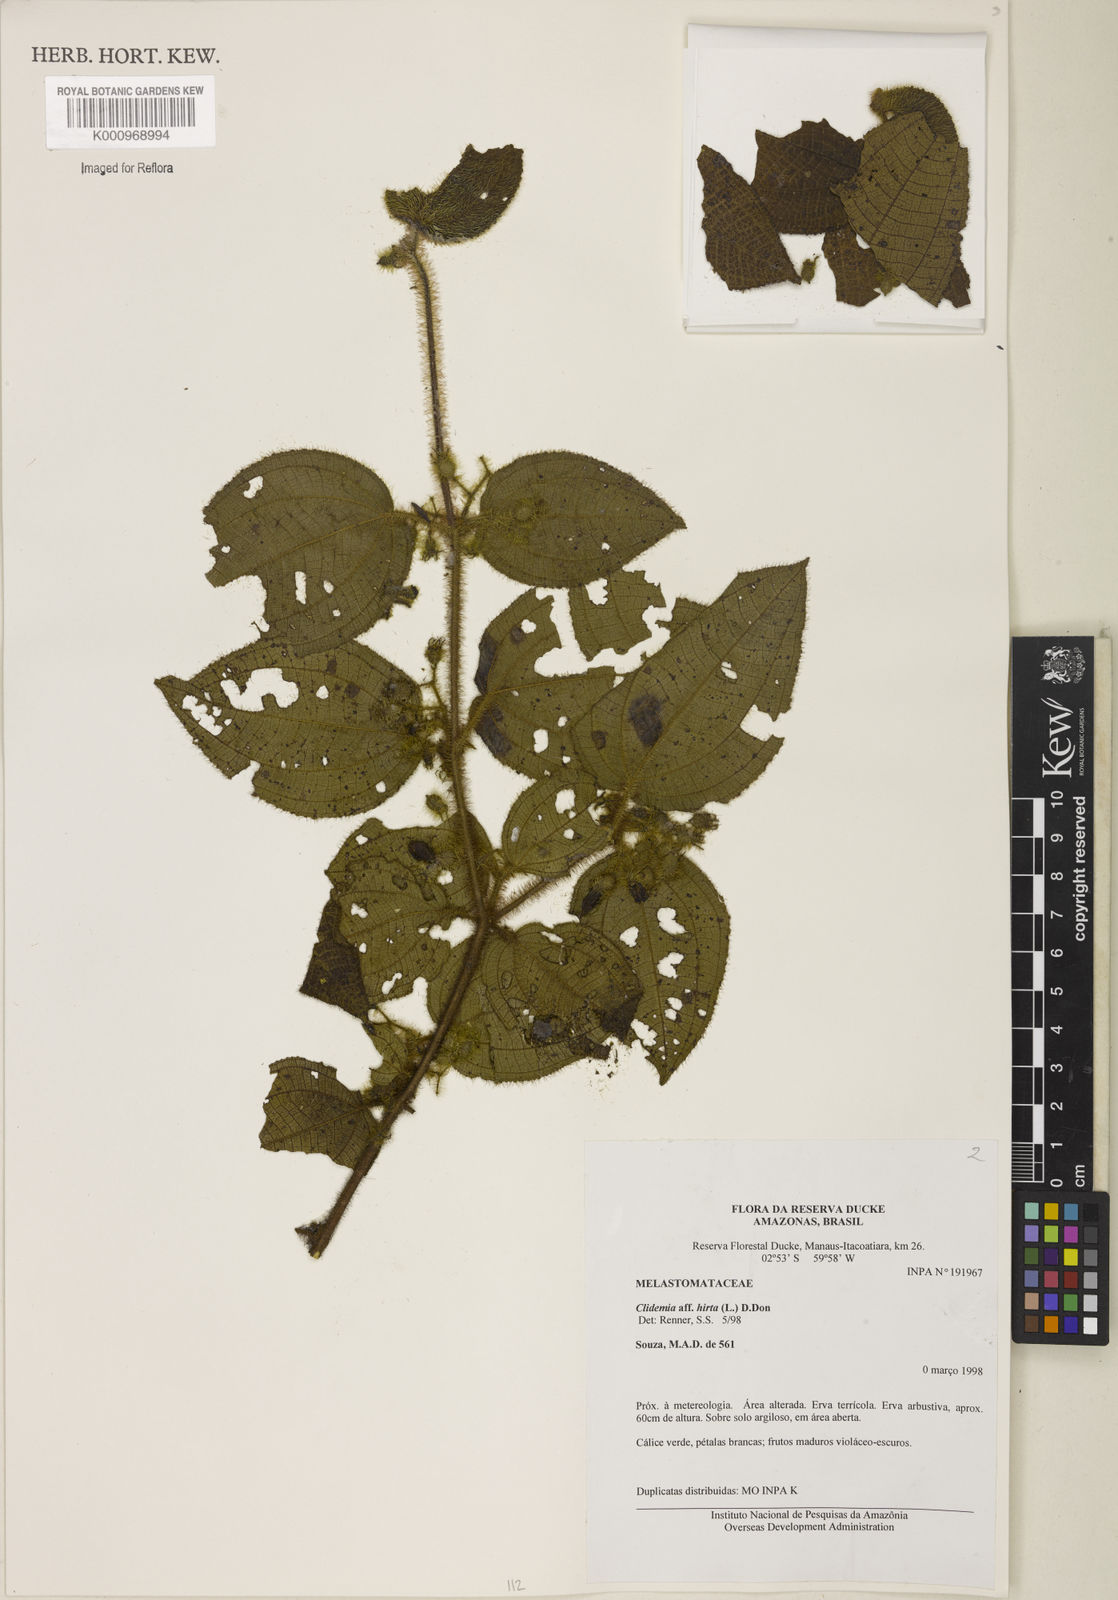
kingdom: Plantae
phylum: Tracheophyta
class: Magnoliopsida
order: Myrtales
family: Melastomataceae
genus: Miconia
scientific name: Miconia crenata
